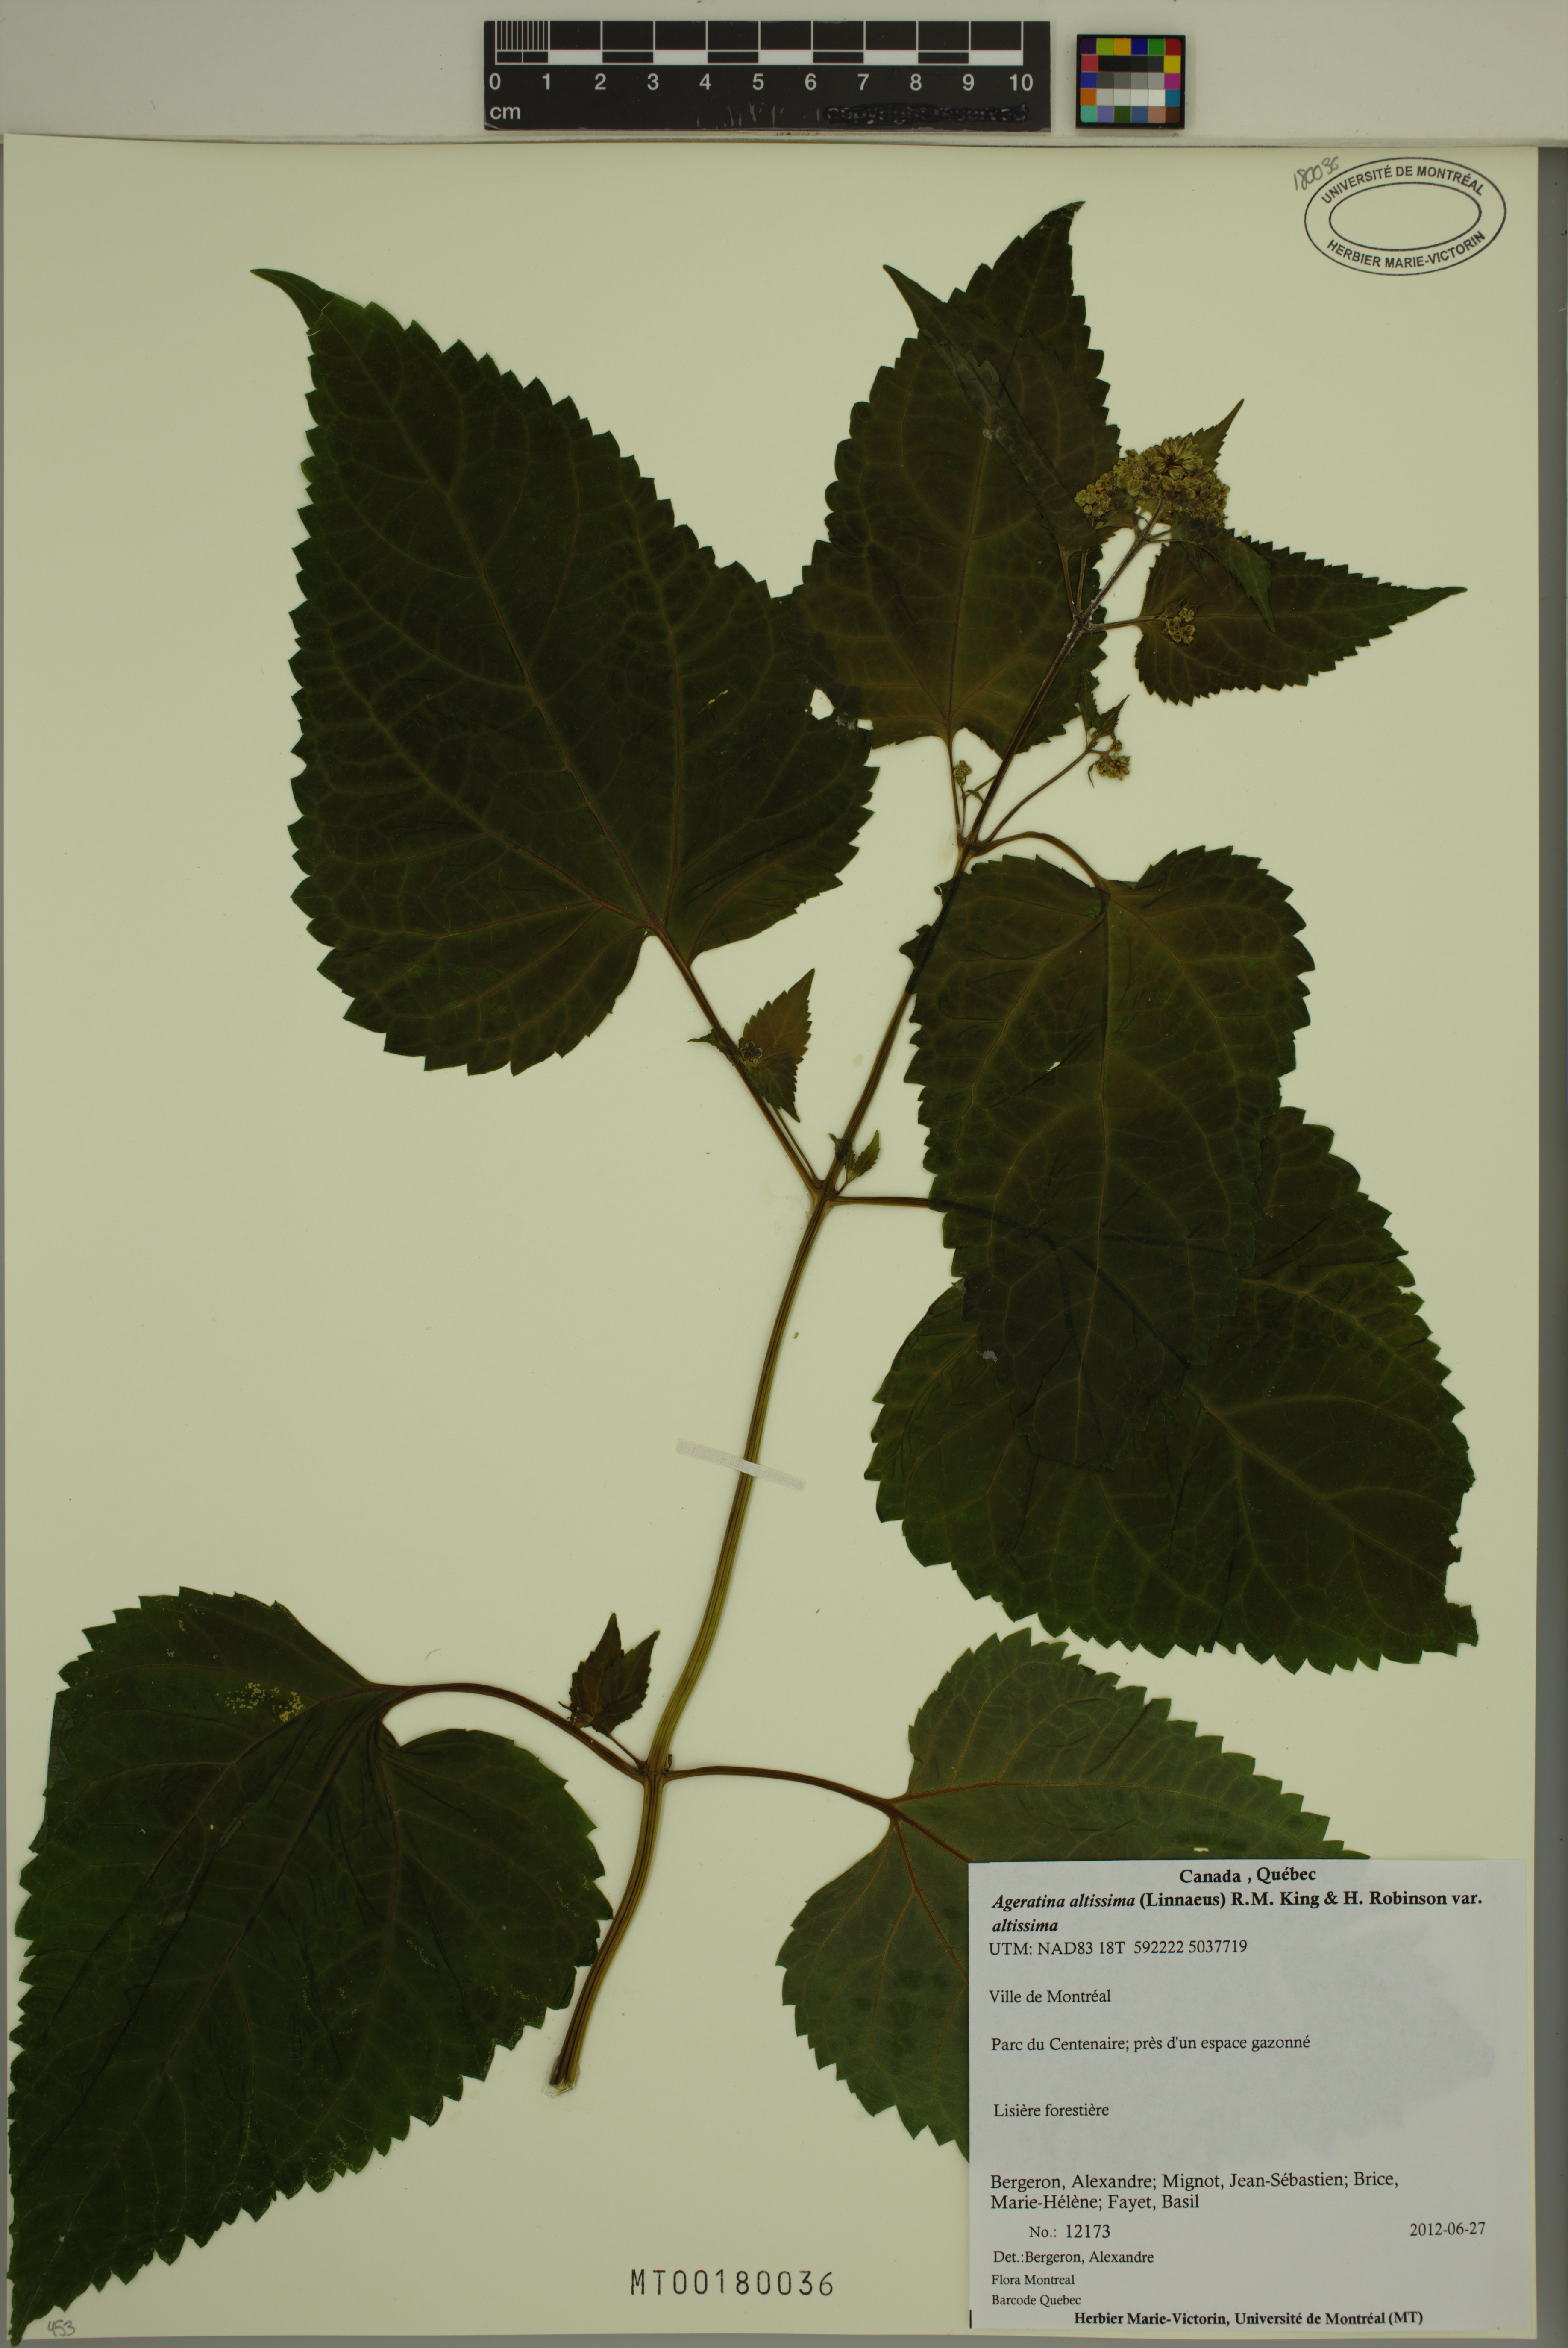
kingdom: Plantae
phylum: Tracheophyta
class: Magnoliopsida
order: Asterales
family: Asteraceae
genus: Ageratina
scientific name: Ageratina altissima
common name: White snakeroot
